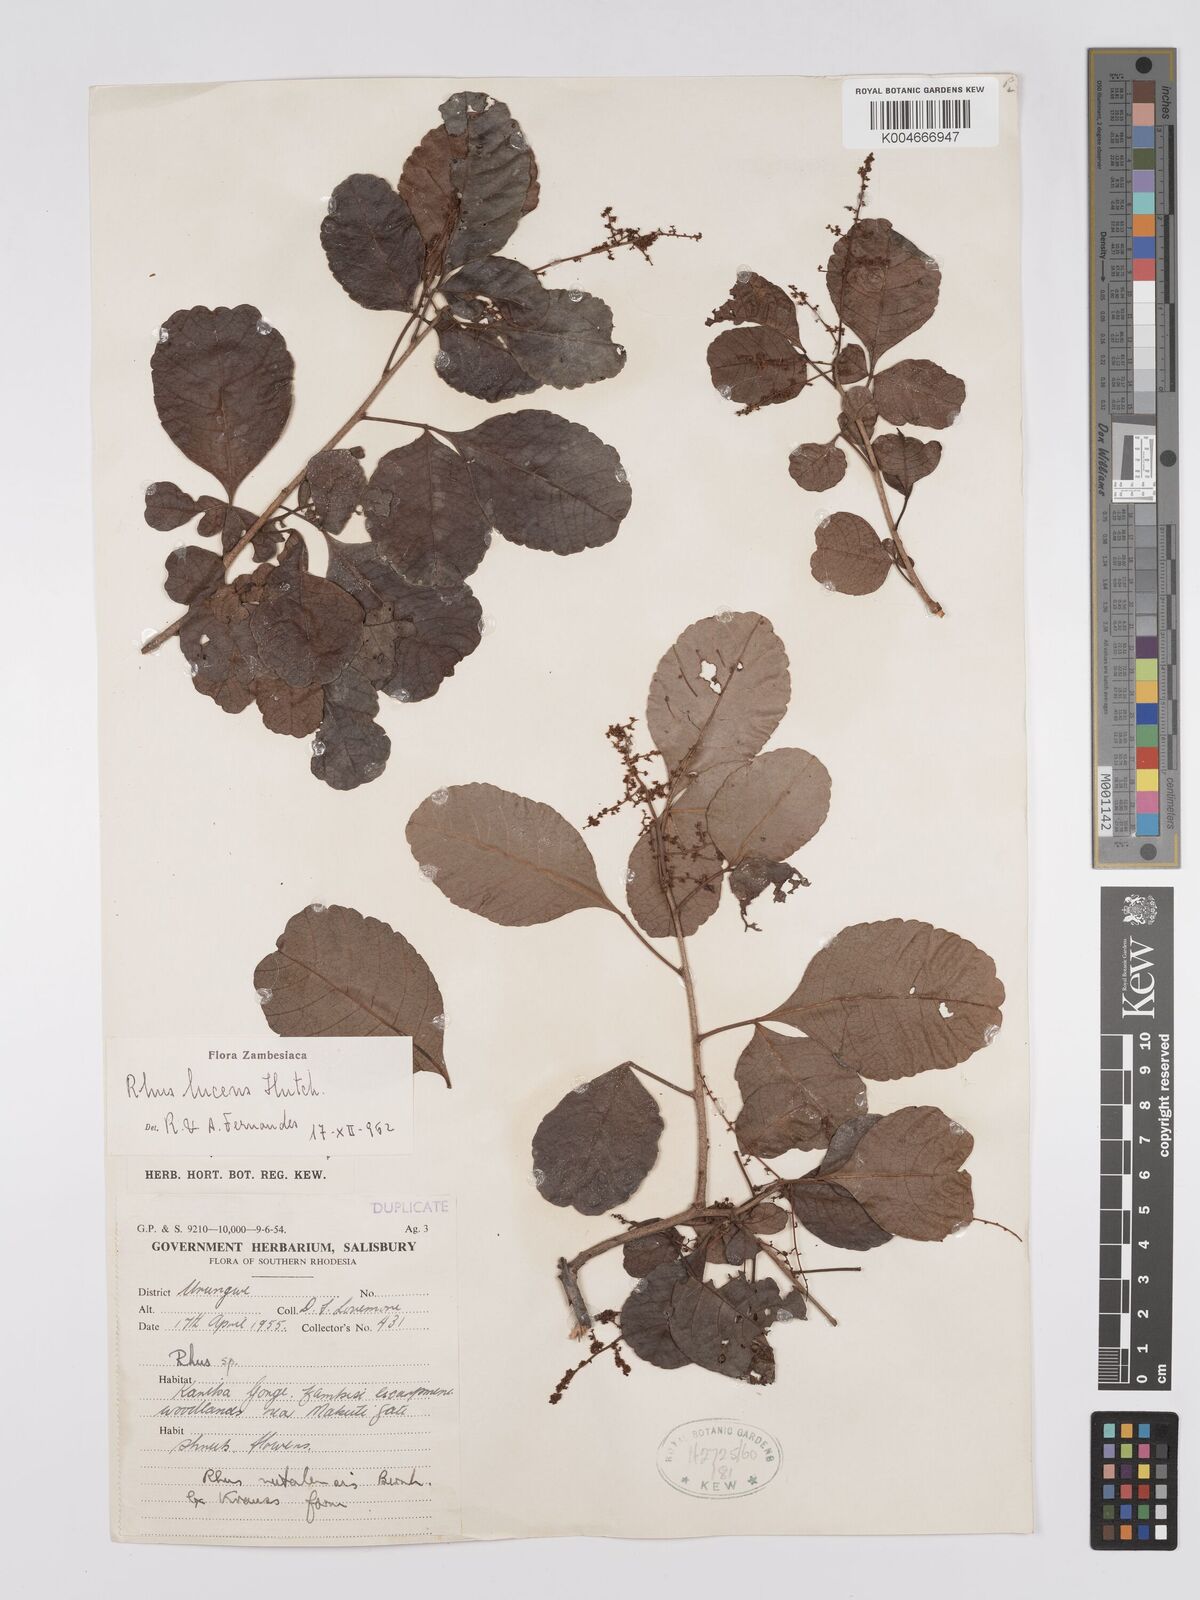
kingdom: Plantae
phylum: Tracheophyta
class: Magnoliopsida
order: Sapindales
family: Anacardiaceae
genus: Searsia
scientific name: Searsia lucens
